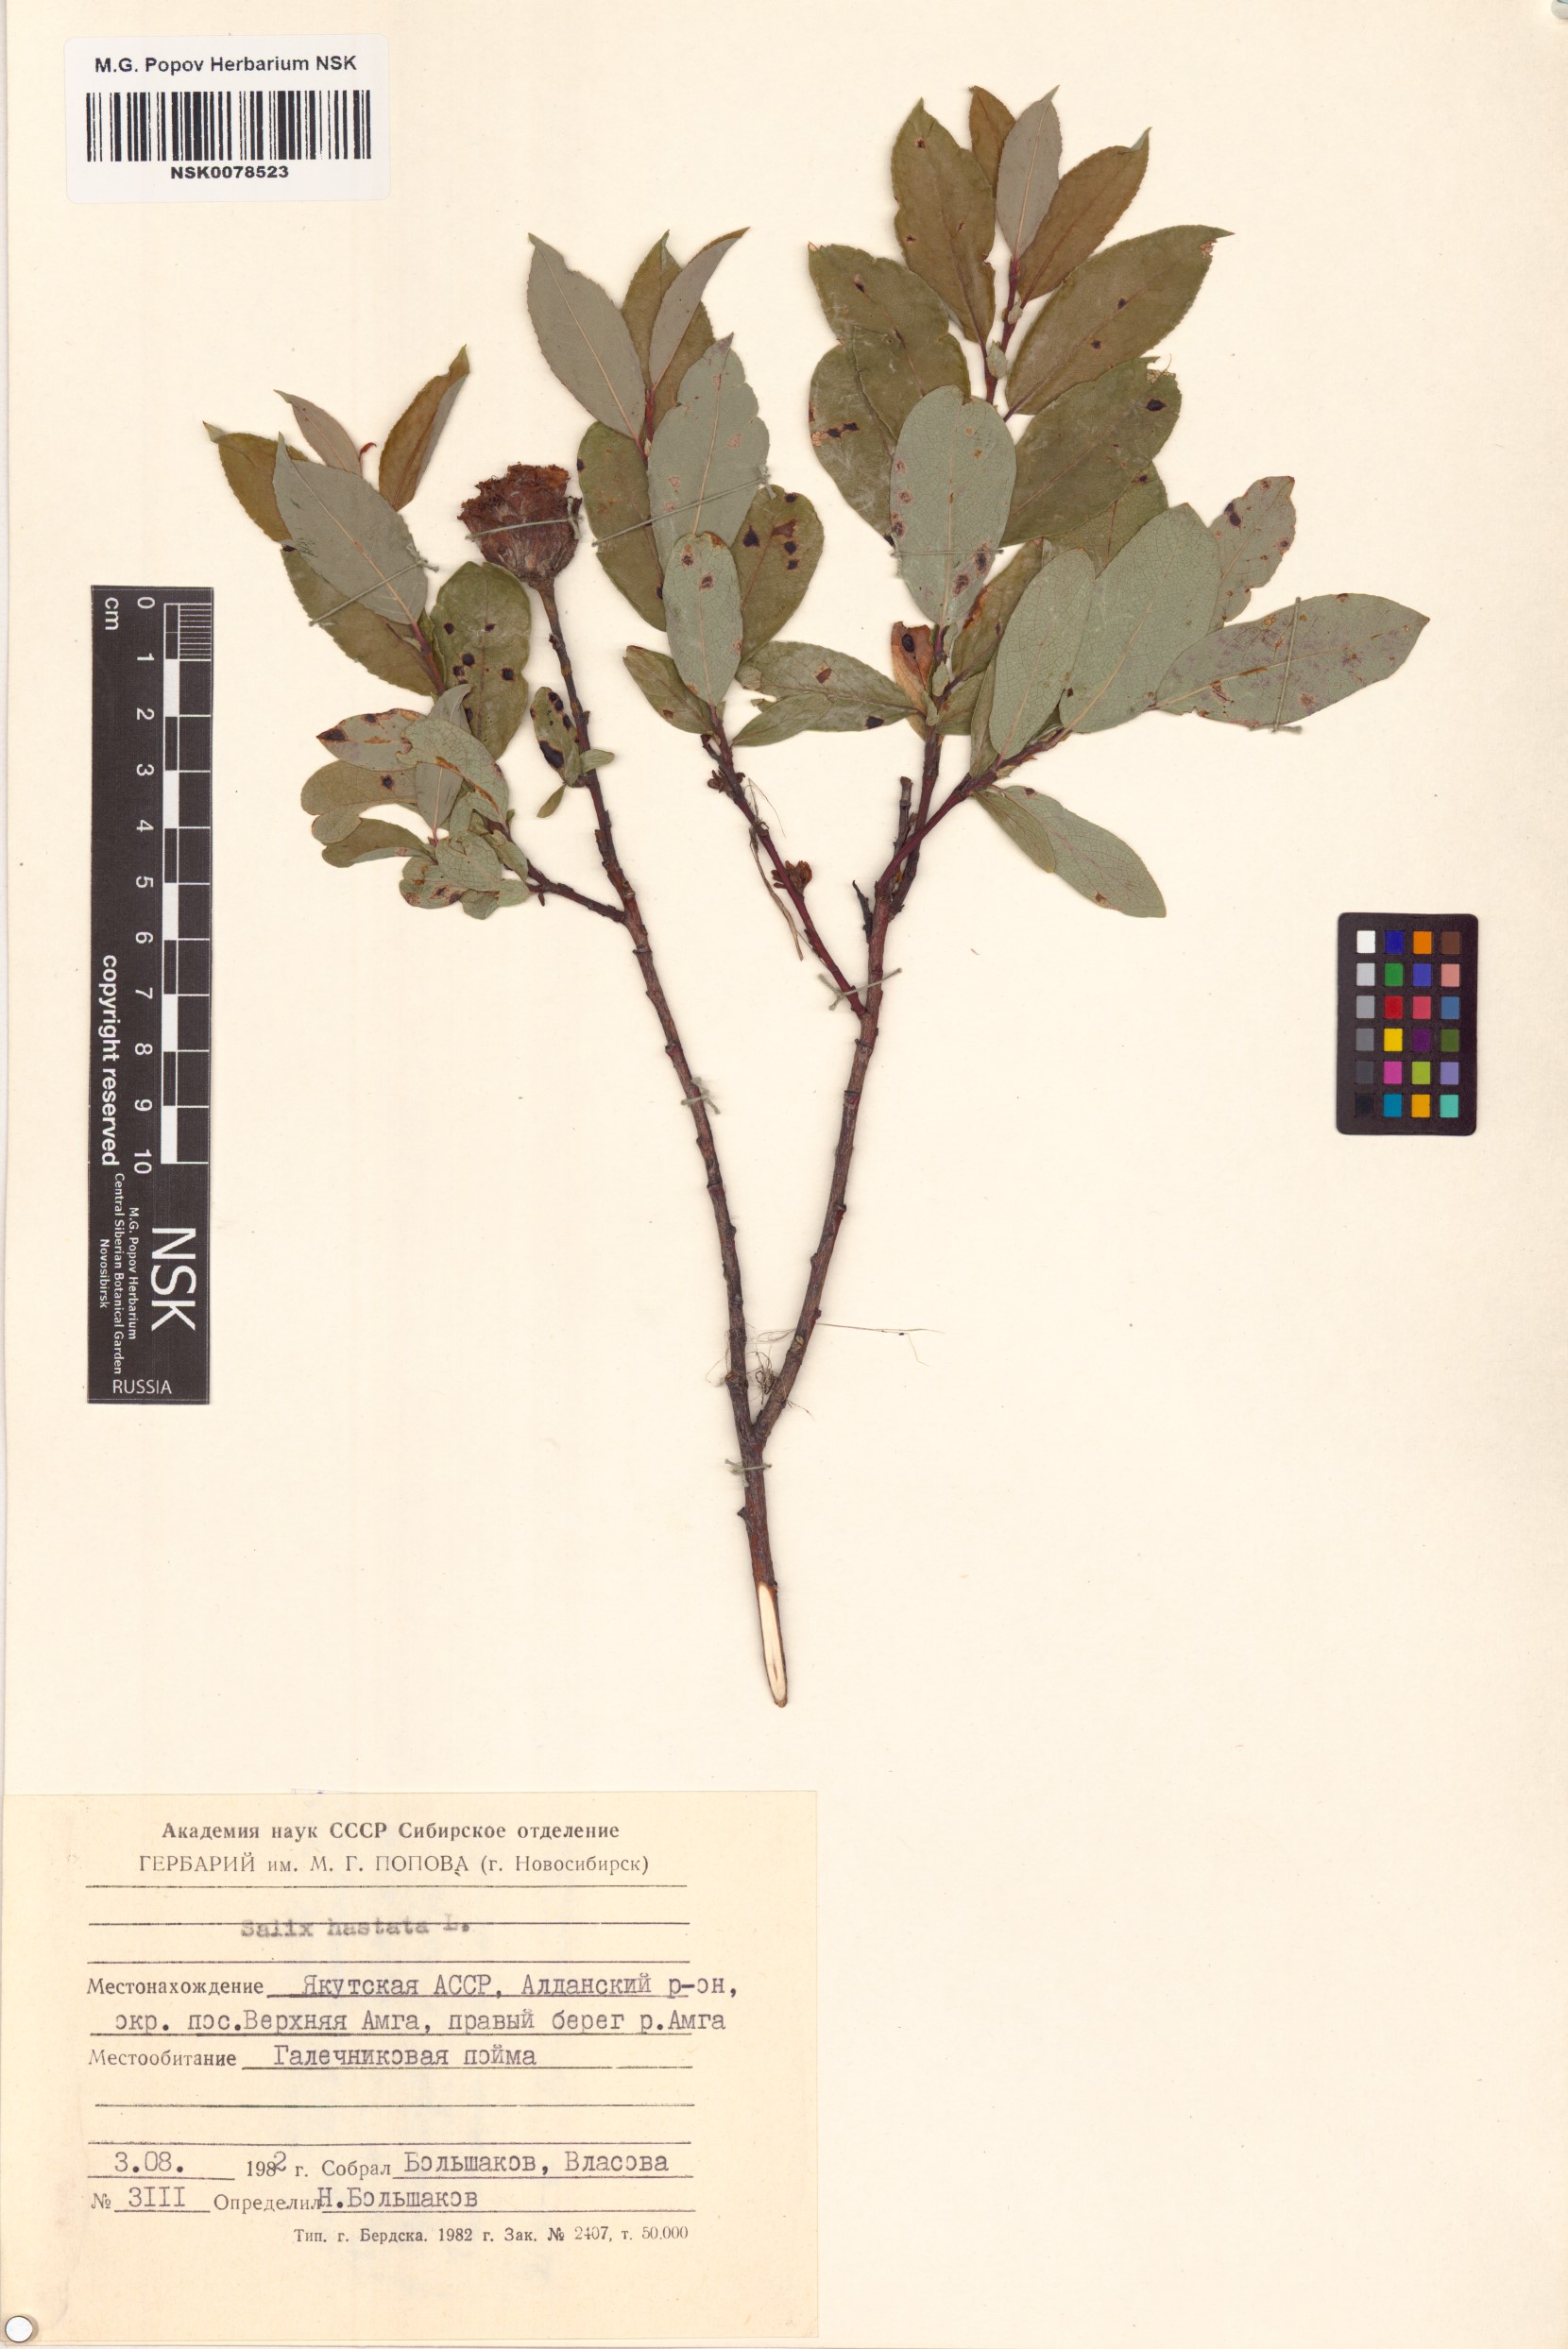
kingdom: Plantae
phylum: Tracheophyta
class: Magnoliopsida
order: Malpighiales
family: Salicaceae
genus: Salix
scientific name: Salix hastata
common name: Halberd willow
